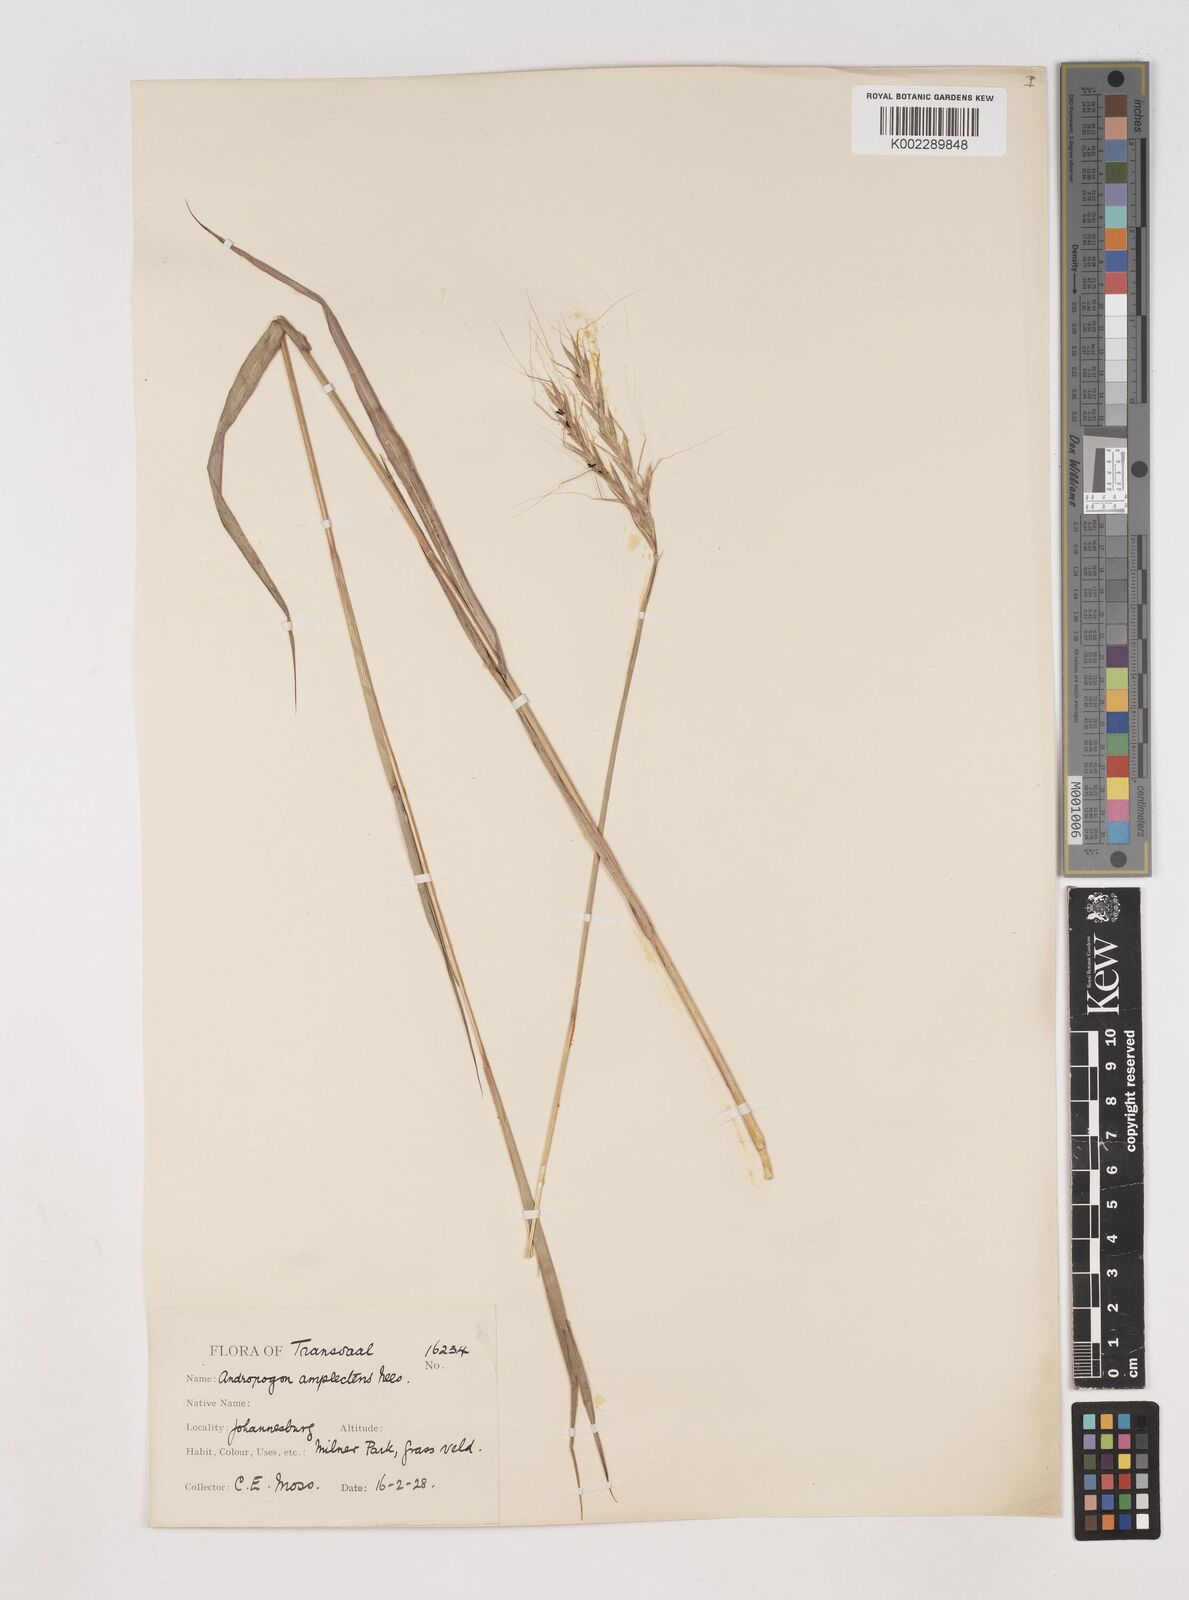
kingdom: Plantae
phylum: Tracheophyta
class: Liliopsida
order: Poales
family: Poaceae
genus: Diheteropogon
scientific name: Diheteropogon amplectens
